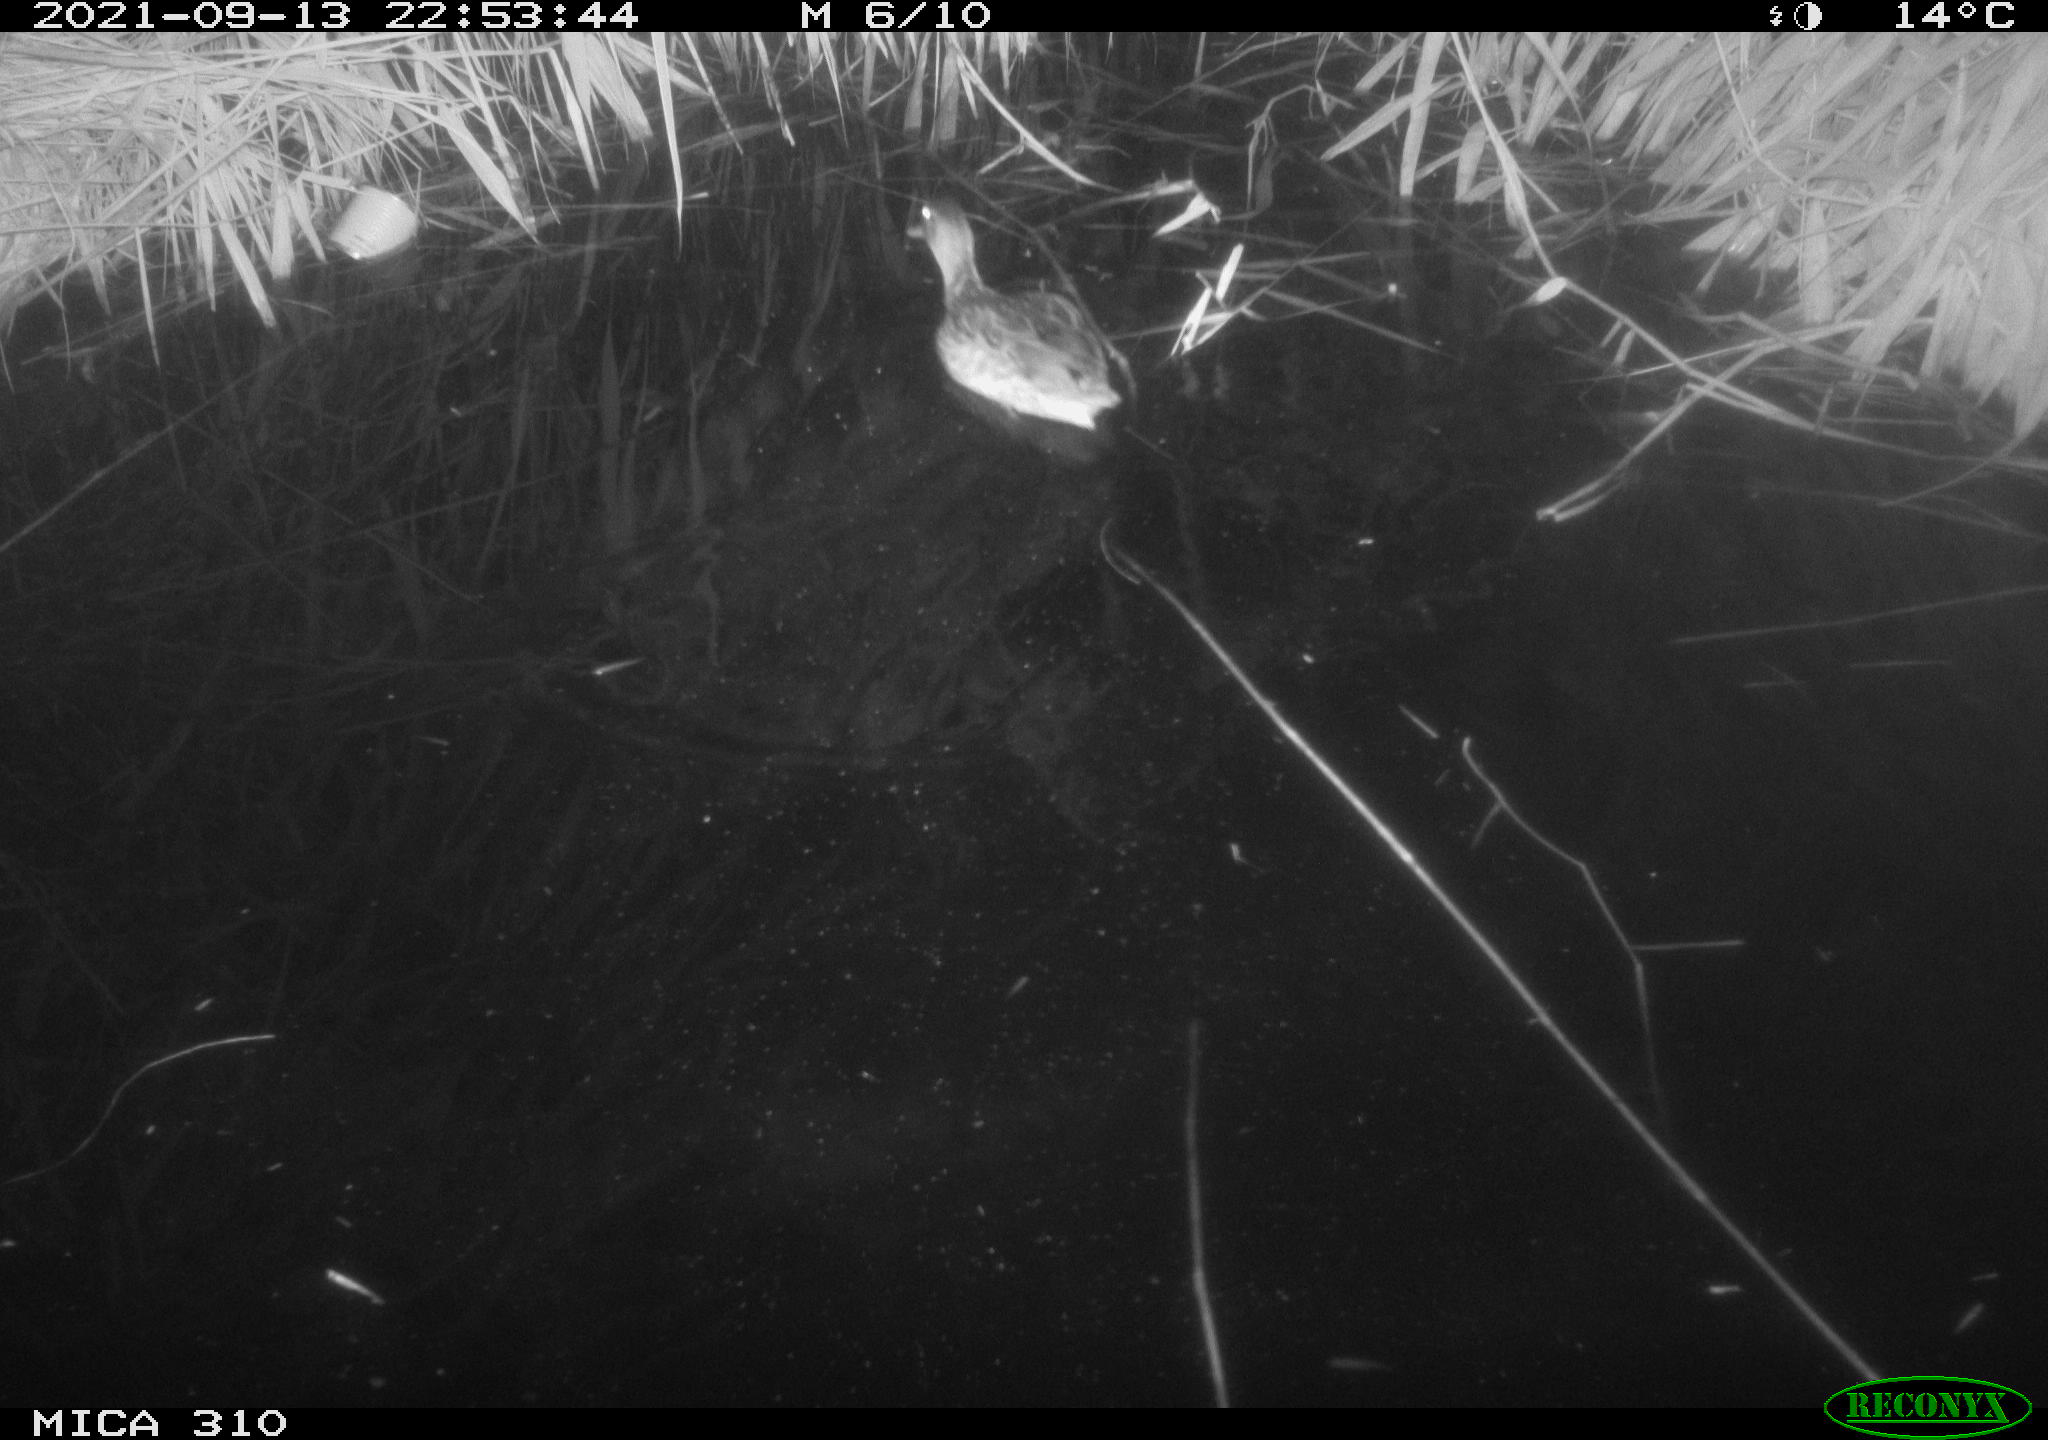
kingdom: Animalia
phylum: Chordata
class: Aves
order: Anseriformes
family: Anatidae
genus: Mareca
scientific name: Mareca strepera
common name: Gadwall
